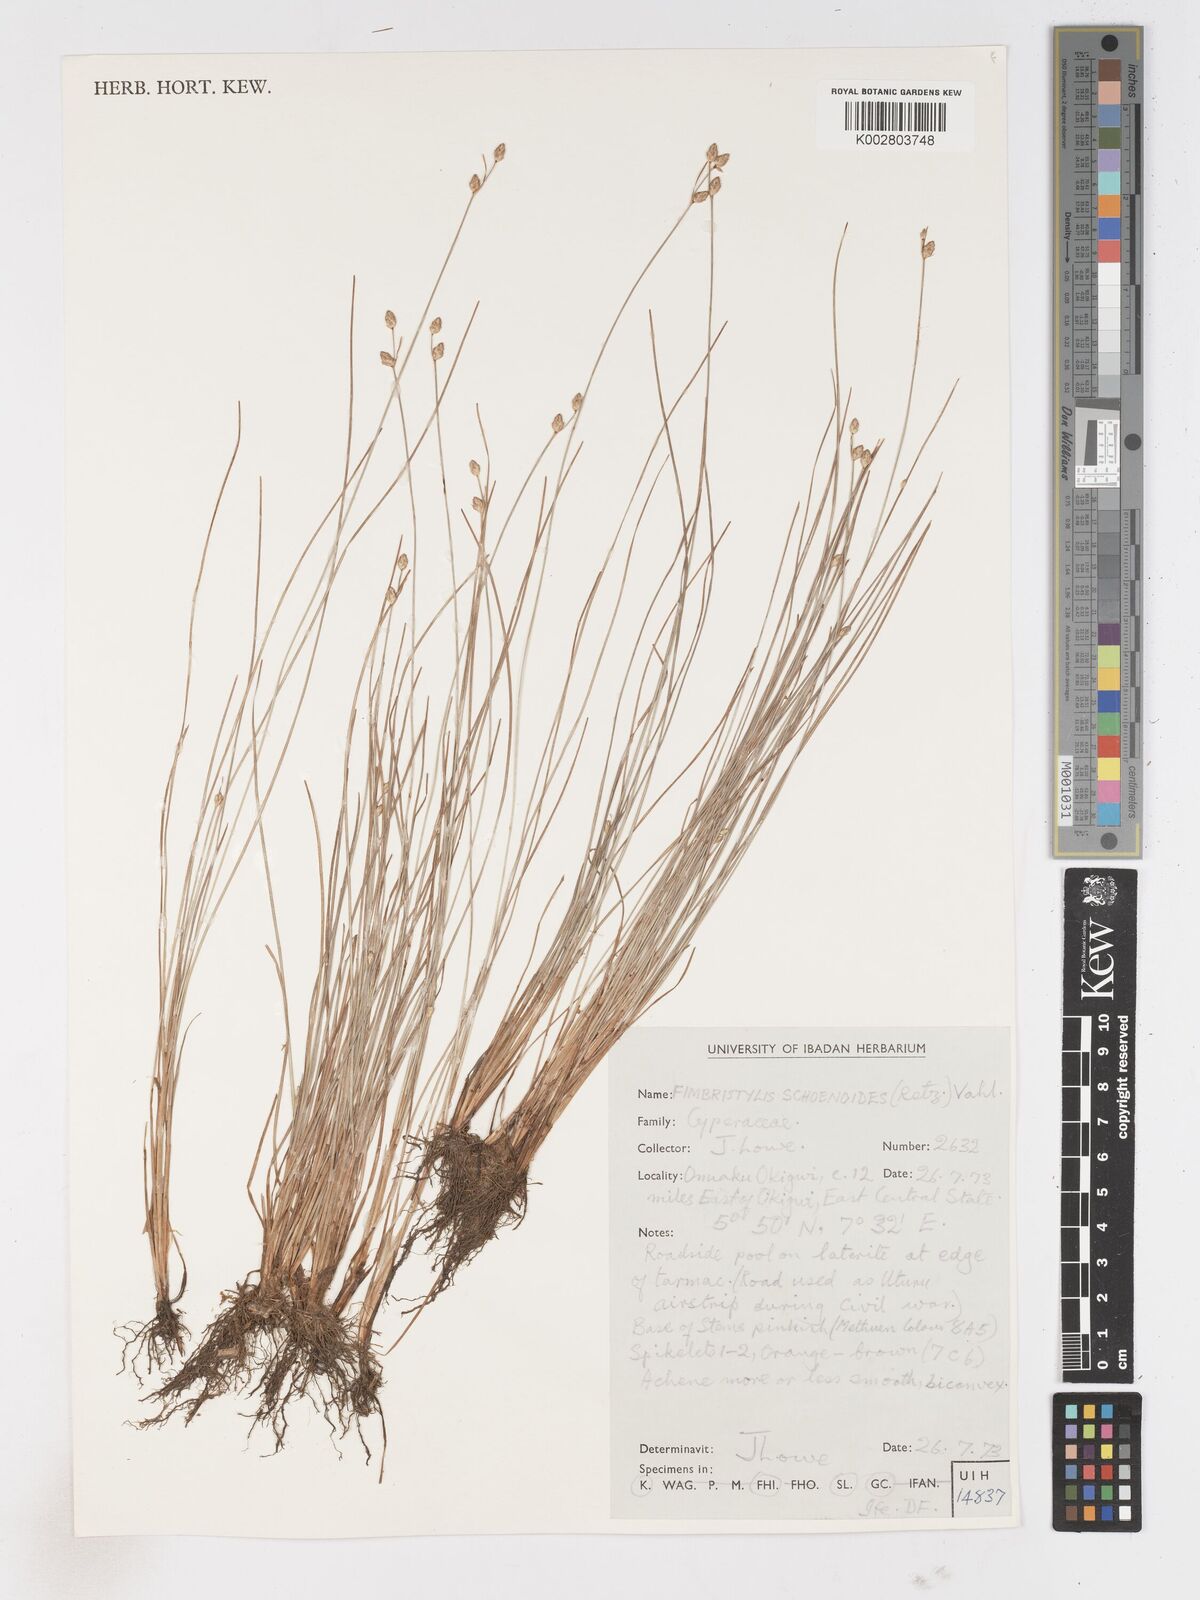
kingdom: Plantae
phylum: Tracheophyta
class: Liliopsida
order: Poales
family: Cyperaceae
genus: Fimbristylis
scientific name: Fimbristylis schoenoides
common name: Ditch fimbry
